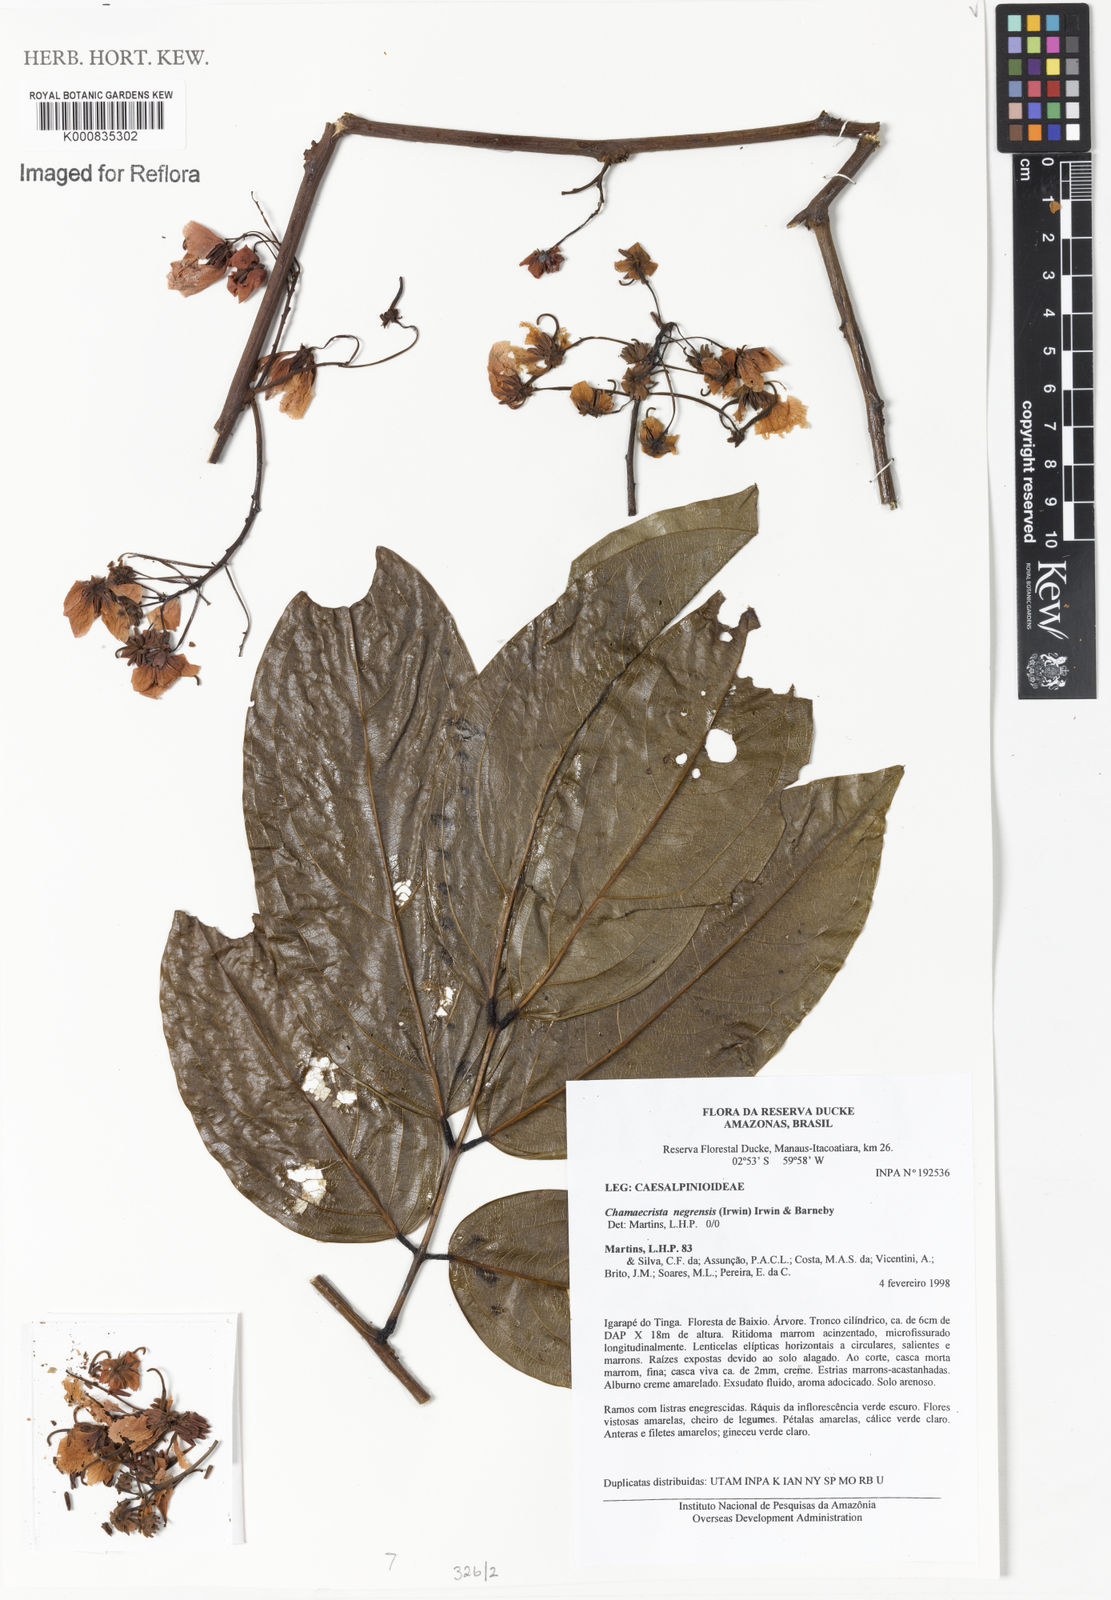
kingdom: Plantae
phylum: Tracheophyta
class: Magnoliopsida
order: Fabales
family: Fabaceae
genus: Chamaecrista
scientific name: Chamaecrista negrensis
